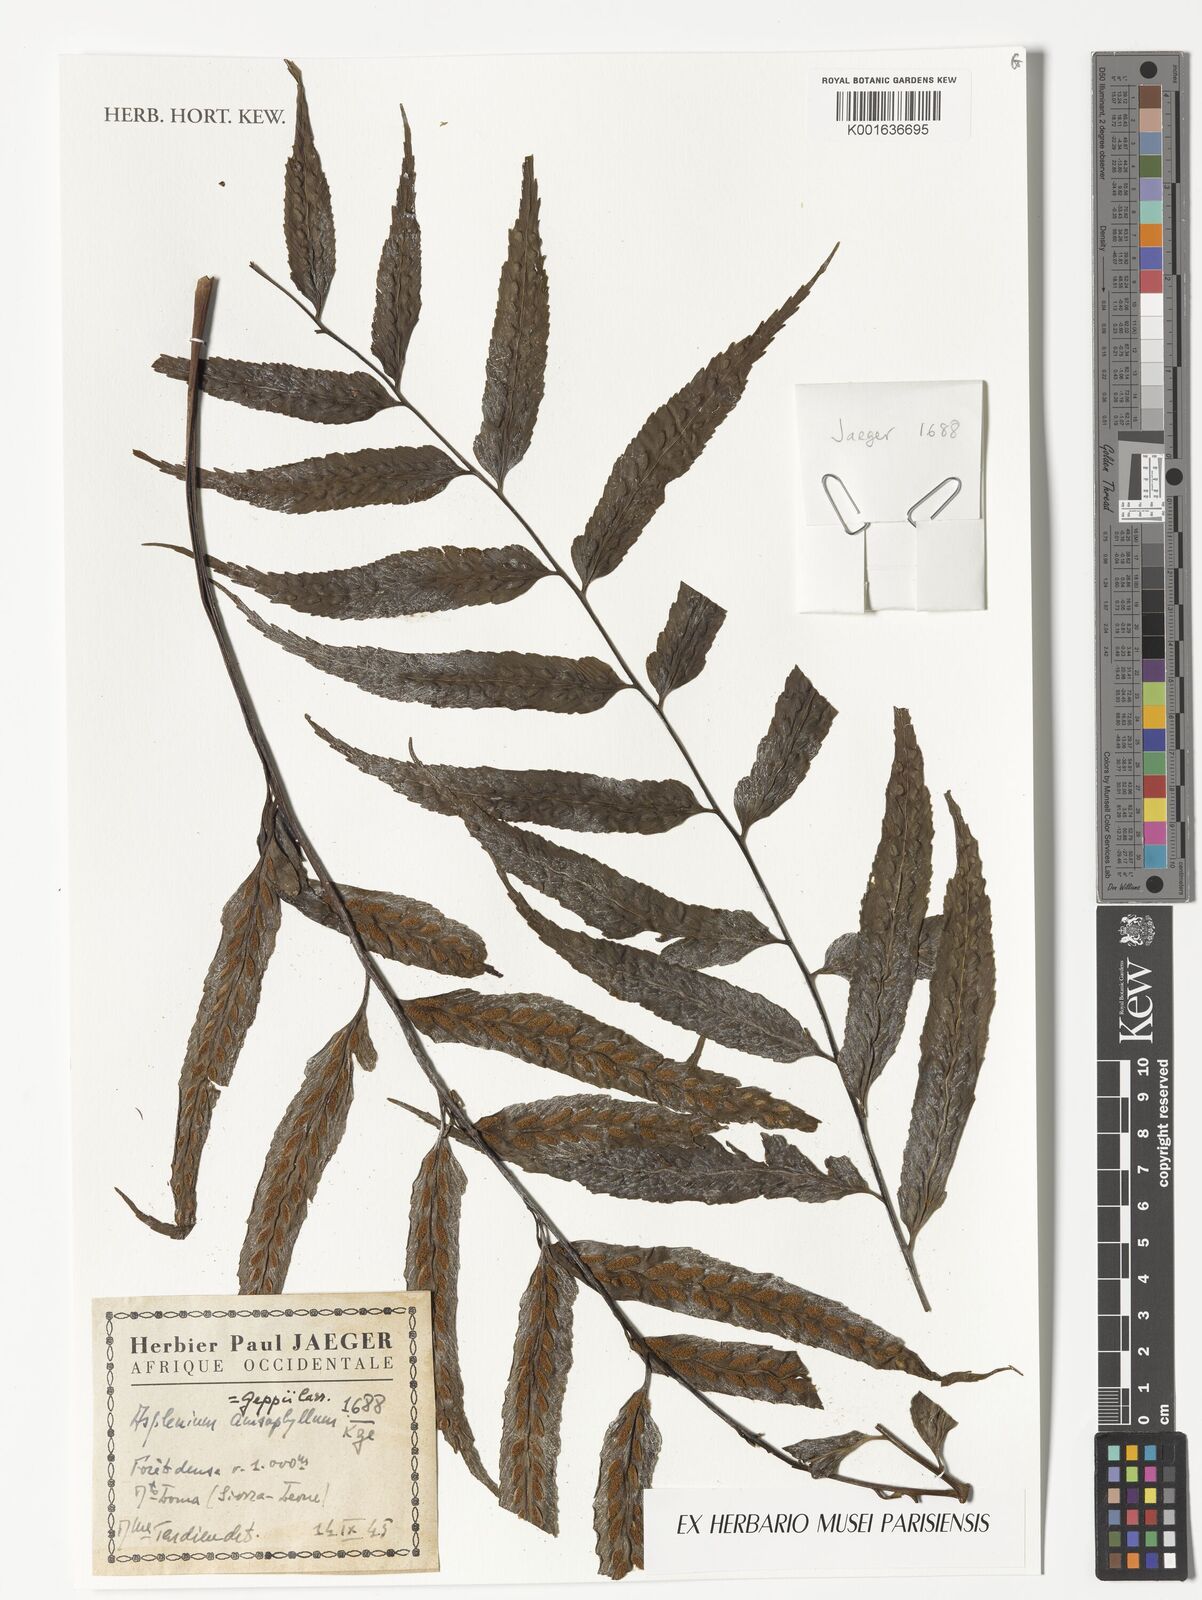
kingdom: Plantae
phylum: Tracheophyta
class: Polypodiopsida
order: Polypodiales
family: Aspleniaceae
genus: Asplenium
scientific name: Asplenium anisophyllum
